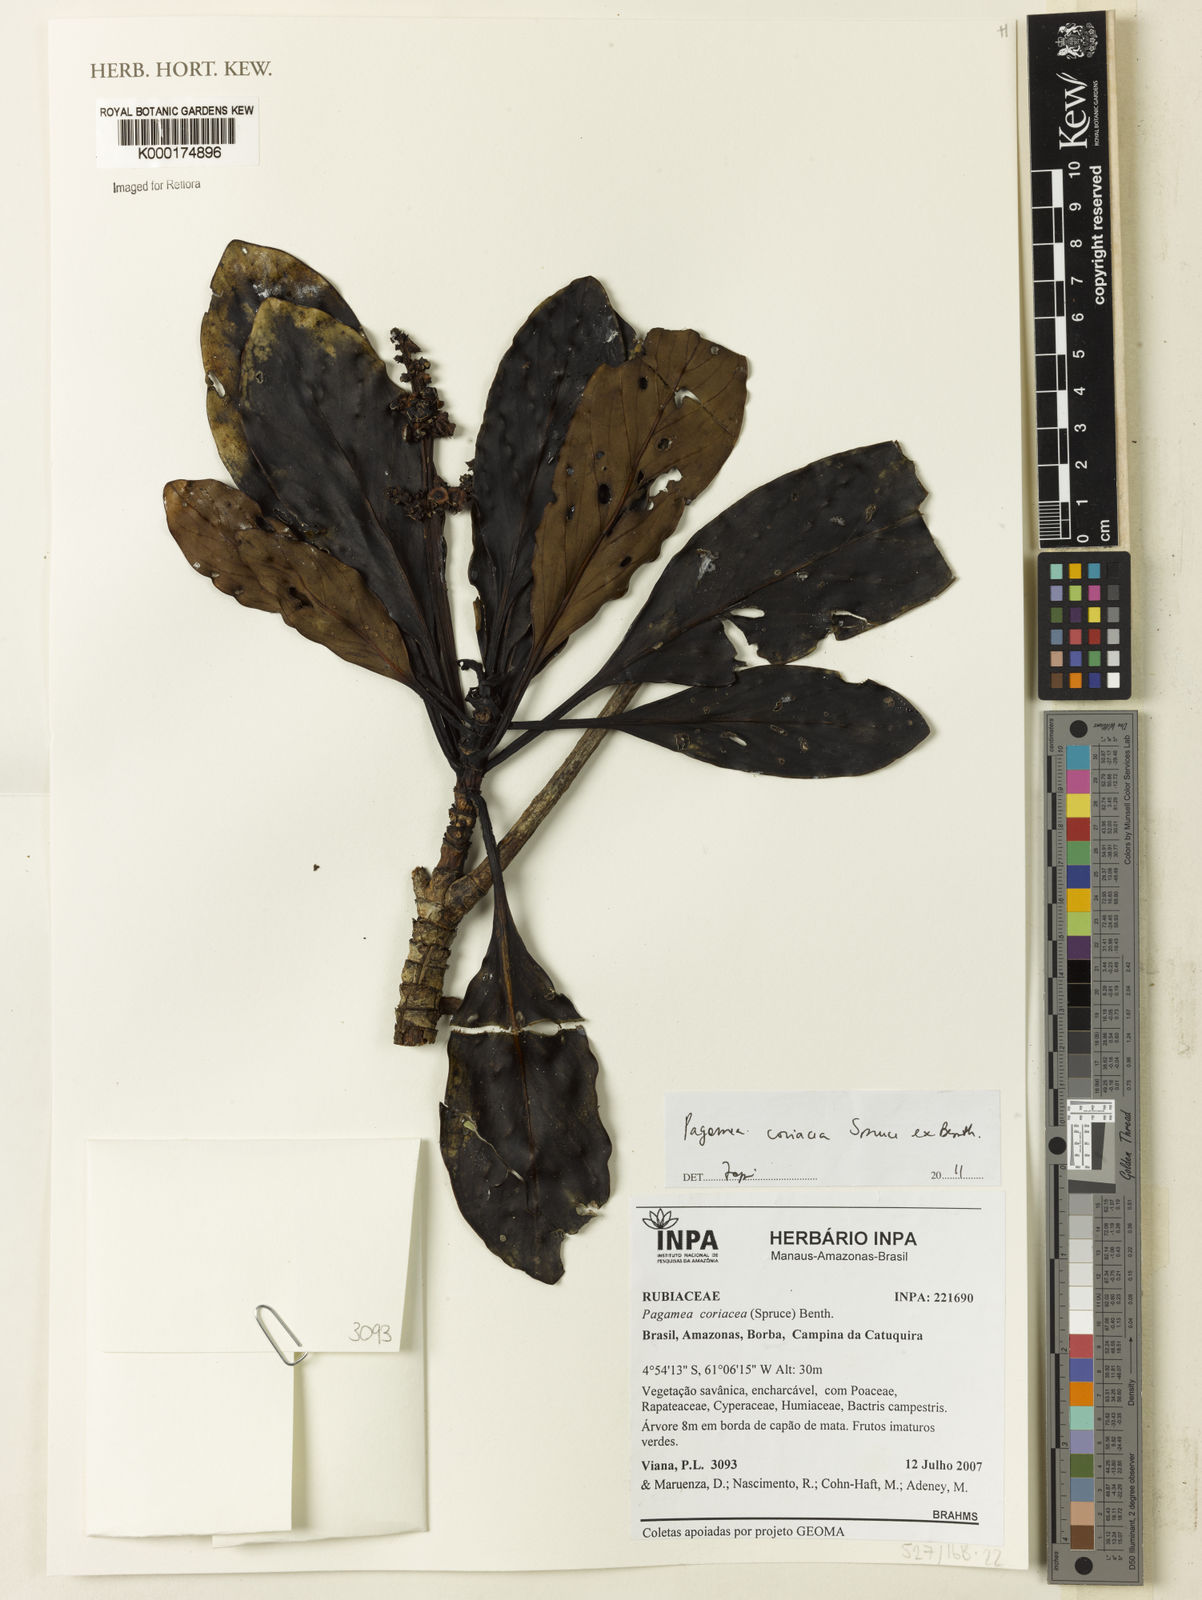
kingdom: Plantae
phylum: Tracheophyta
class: Magnoliopsida
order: Gentianales
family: Rubiaceae
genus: Pagamea
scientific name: Pagamea coriacea
